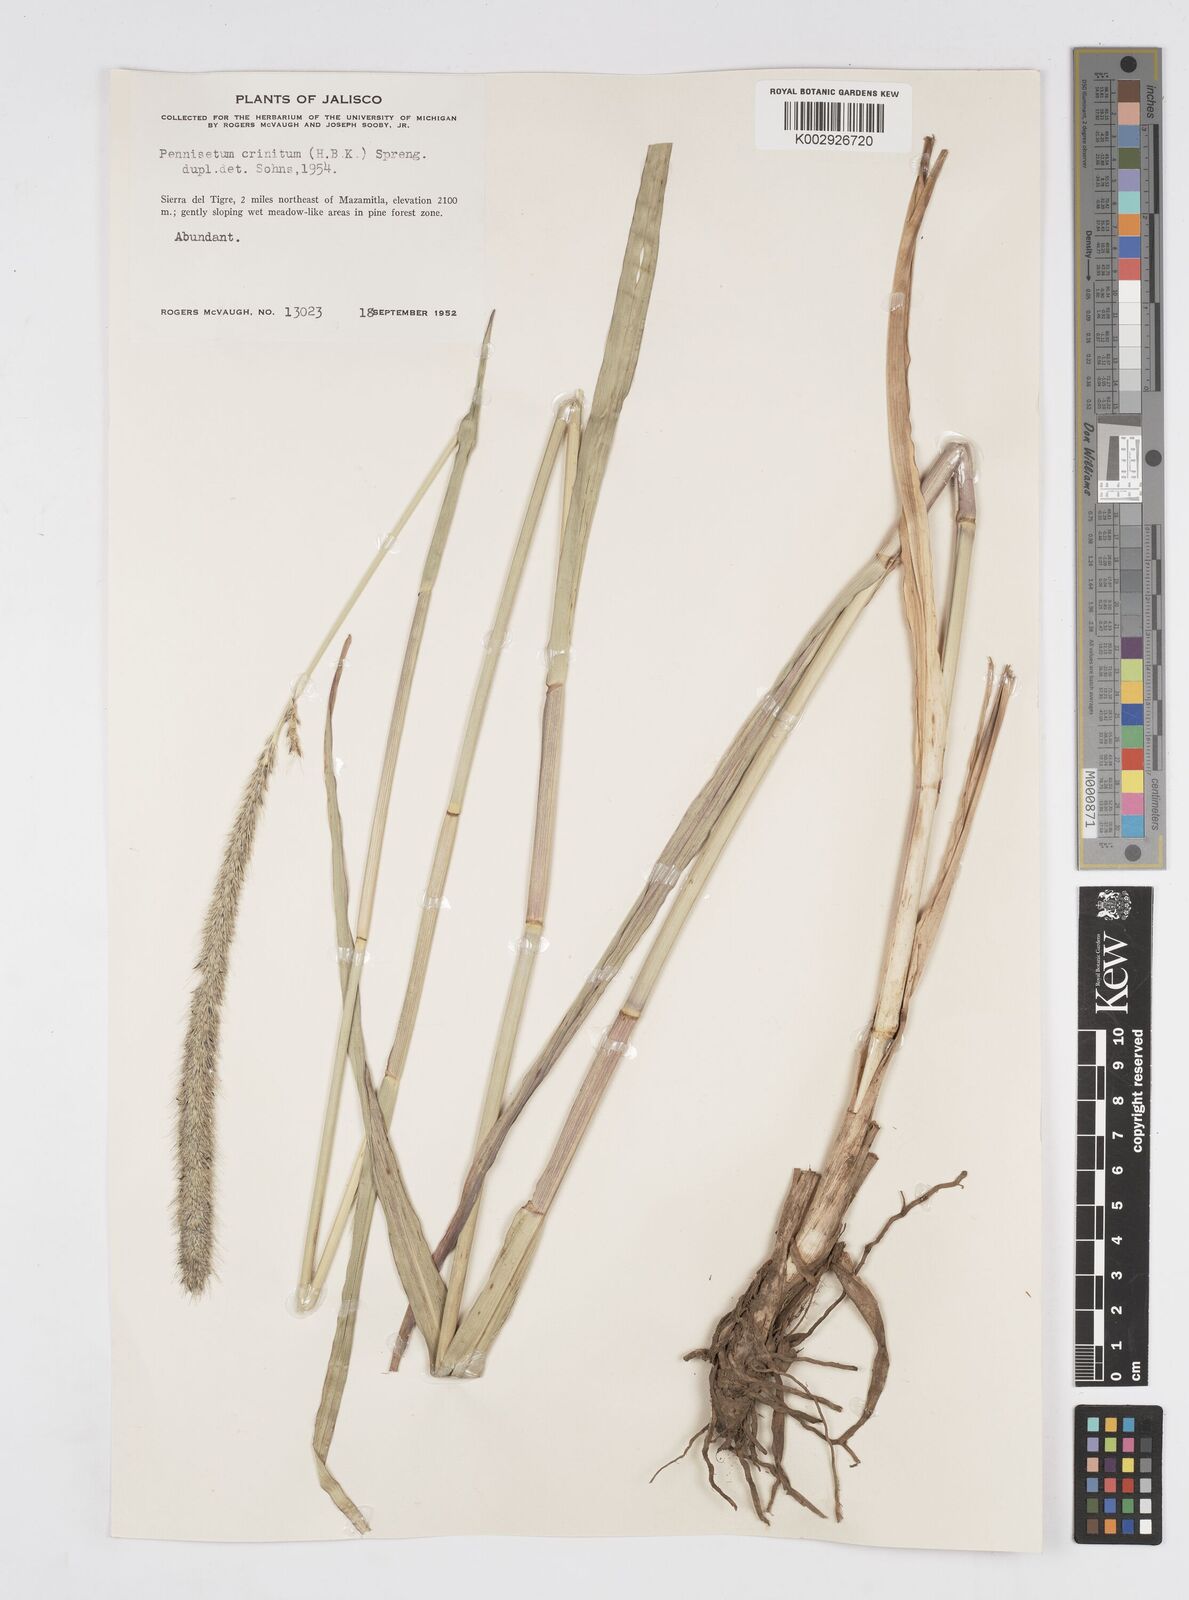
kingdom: Plantae
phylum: Tracheophyta
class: Liliopsida
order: Poales
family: Poaceae
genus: Cenchrus
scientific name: Cenchrus michoacanus
